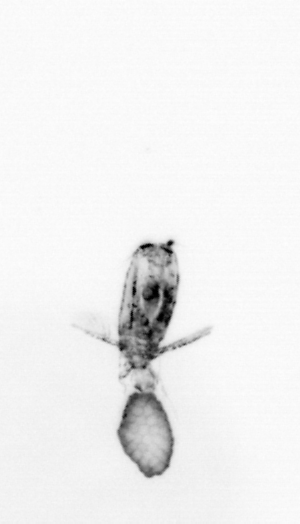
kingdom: Animalia
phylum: Arthropoda
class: Copepoda
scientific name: Copepoda
